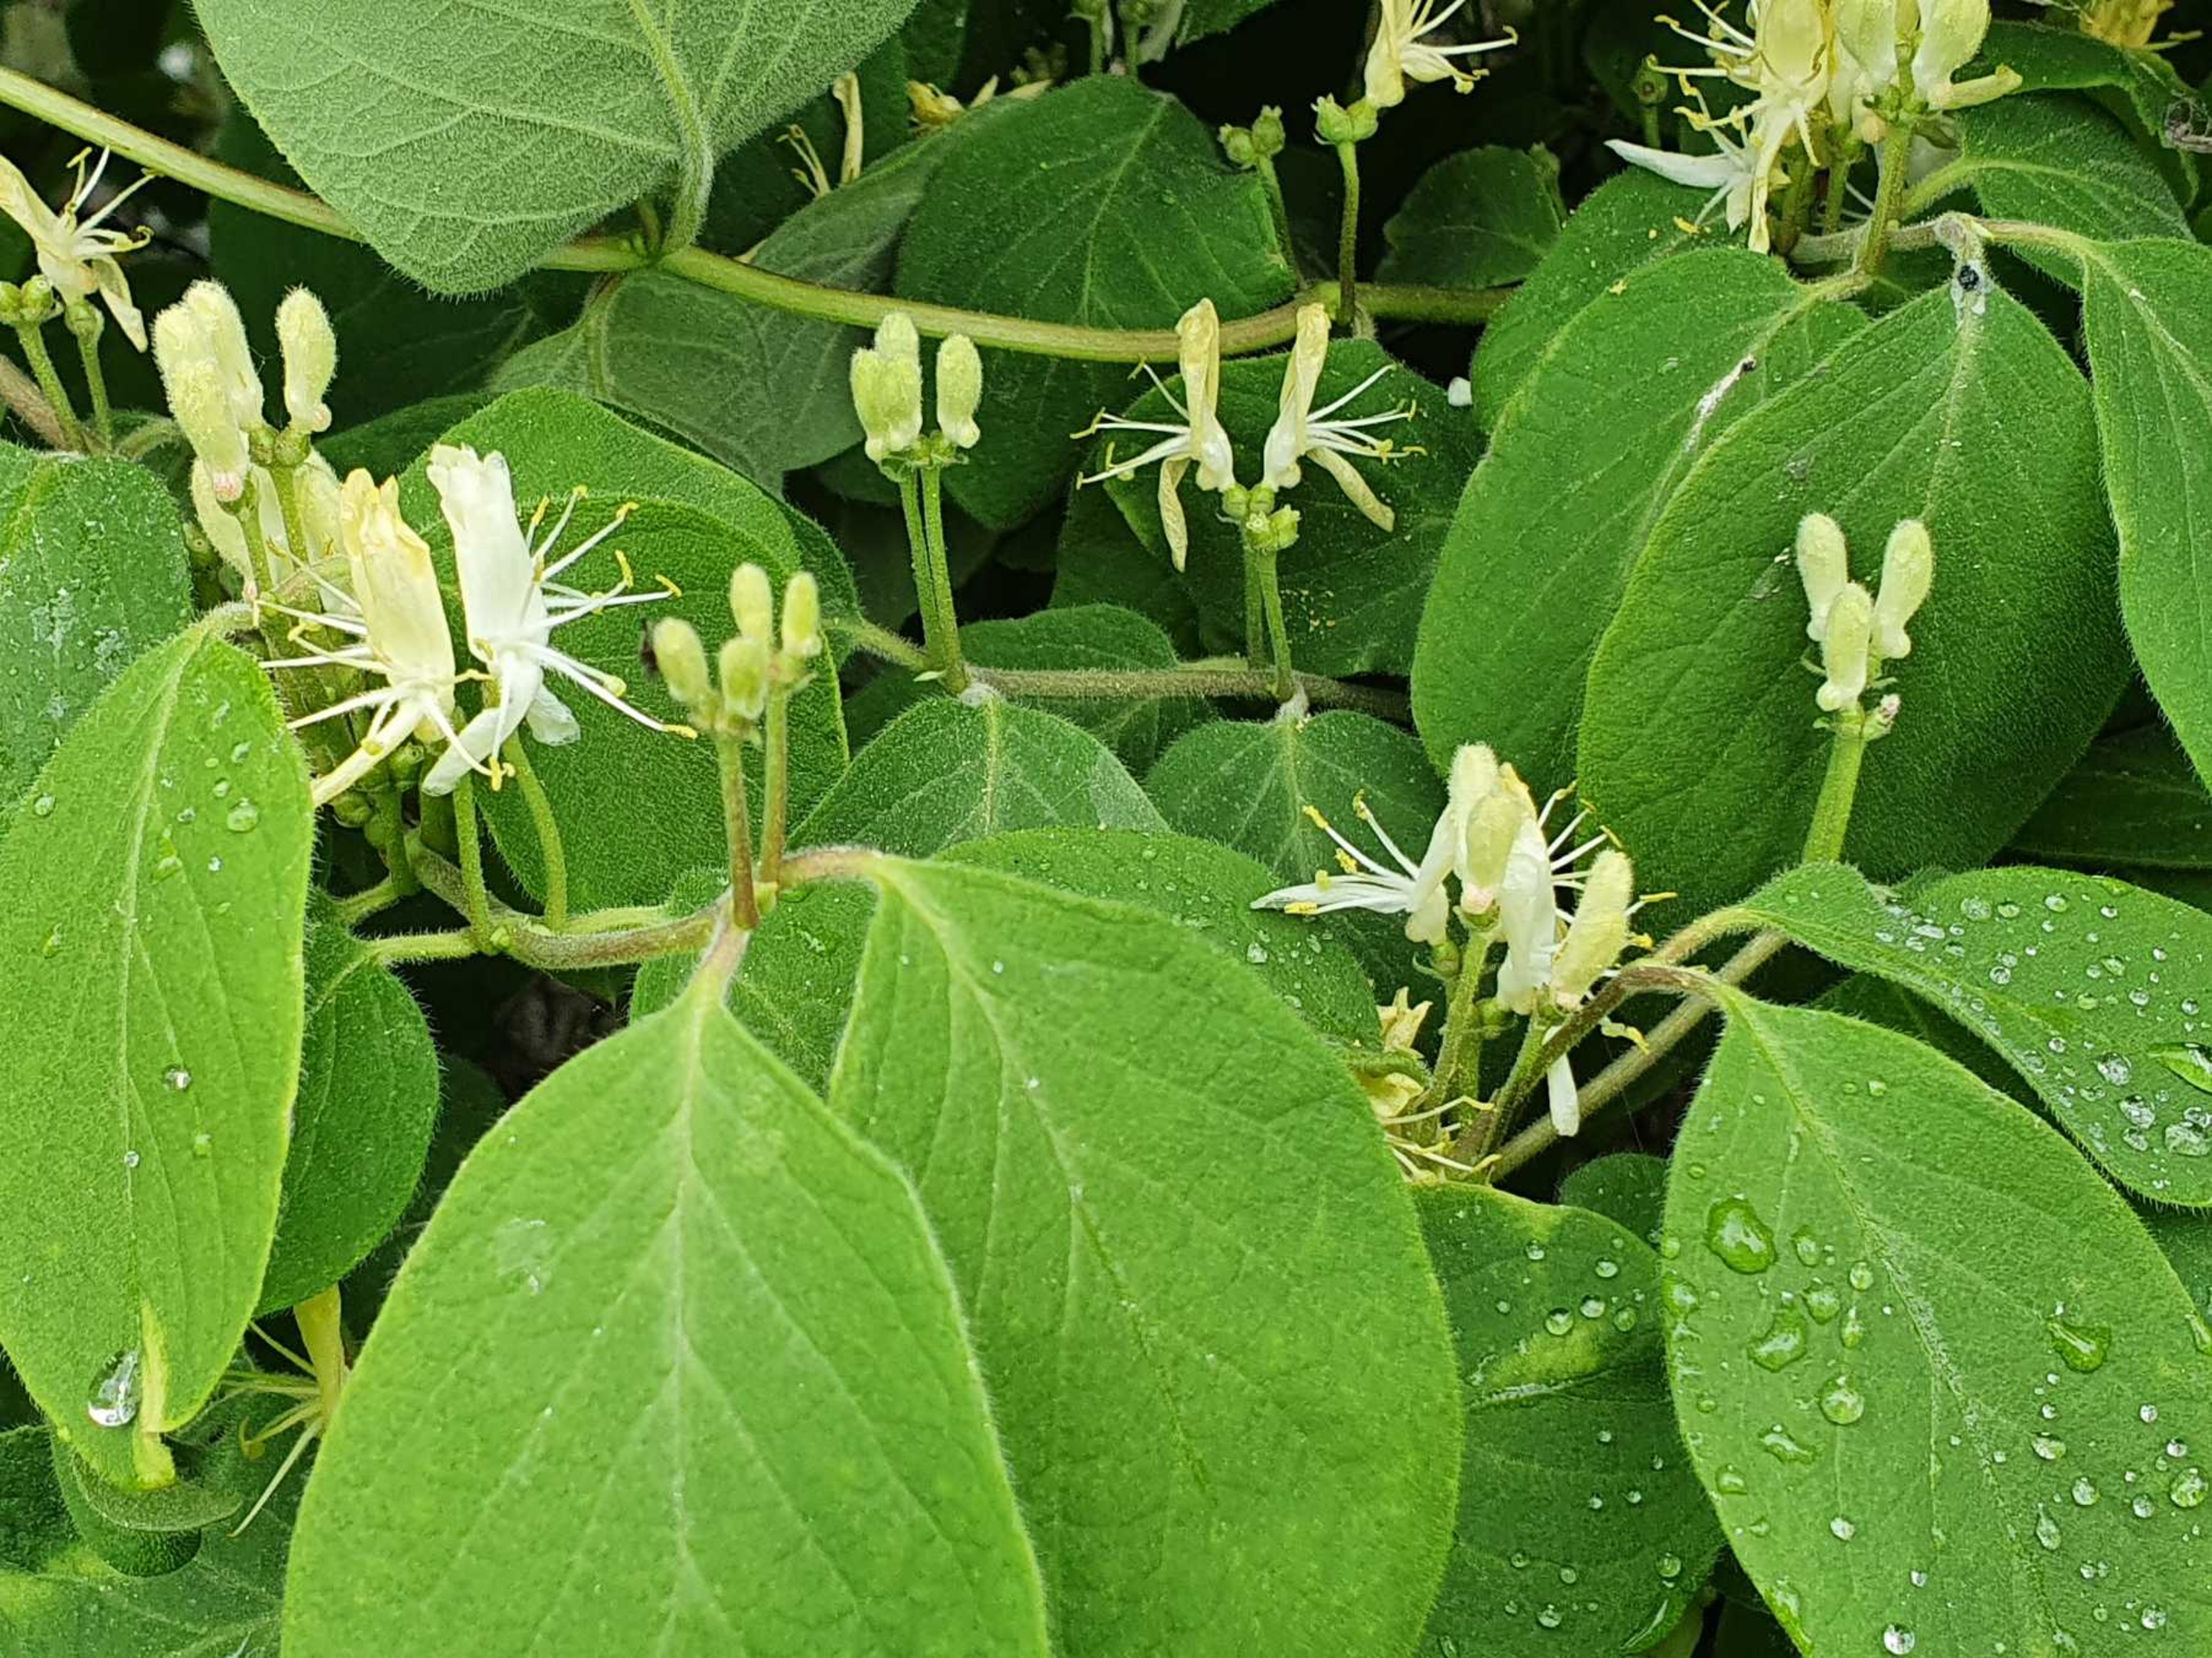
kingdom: Plantae
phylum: Tracheophyta
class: Magnoliopsida
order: Dipsacales
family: Caprifoliaceae
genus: Lonicera
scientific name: Lonicera xylosteum
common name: Dunet gedeblad
